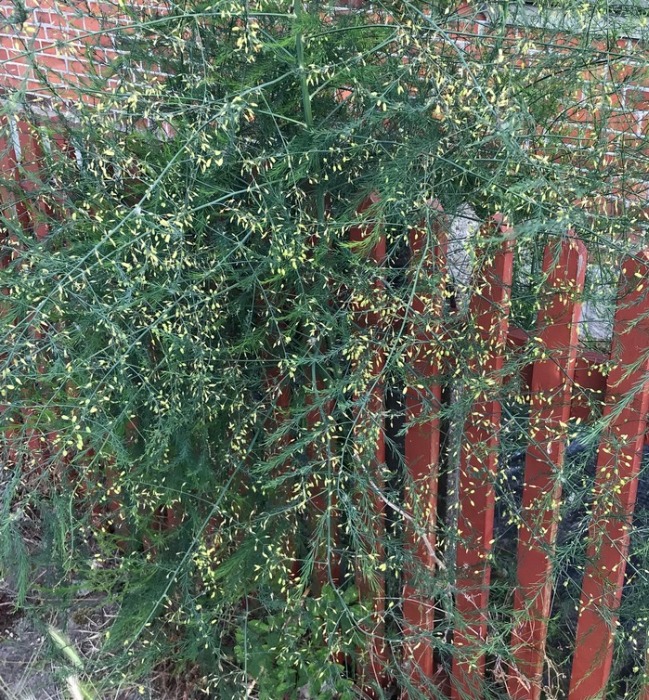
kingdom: Plantae
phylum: Tracheophyta
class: Liliopsida
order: Asparagales
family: Asparagaceae
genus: Asparagus
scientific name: Asparagus officinalis
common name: Asparges
